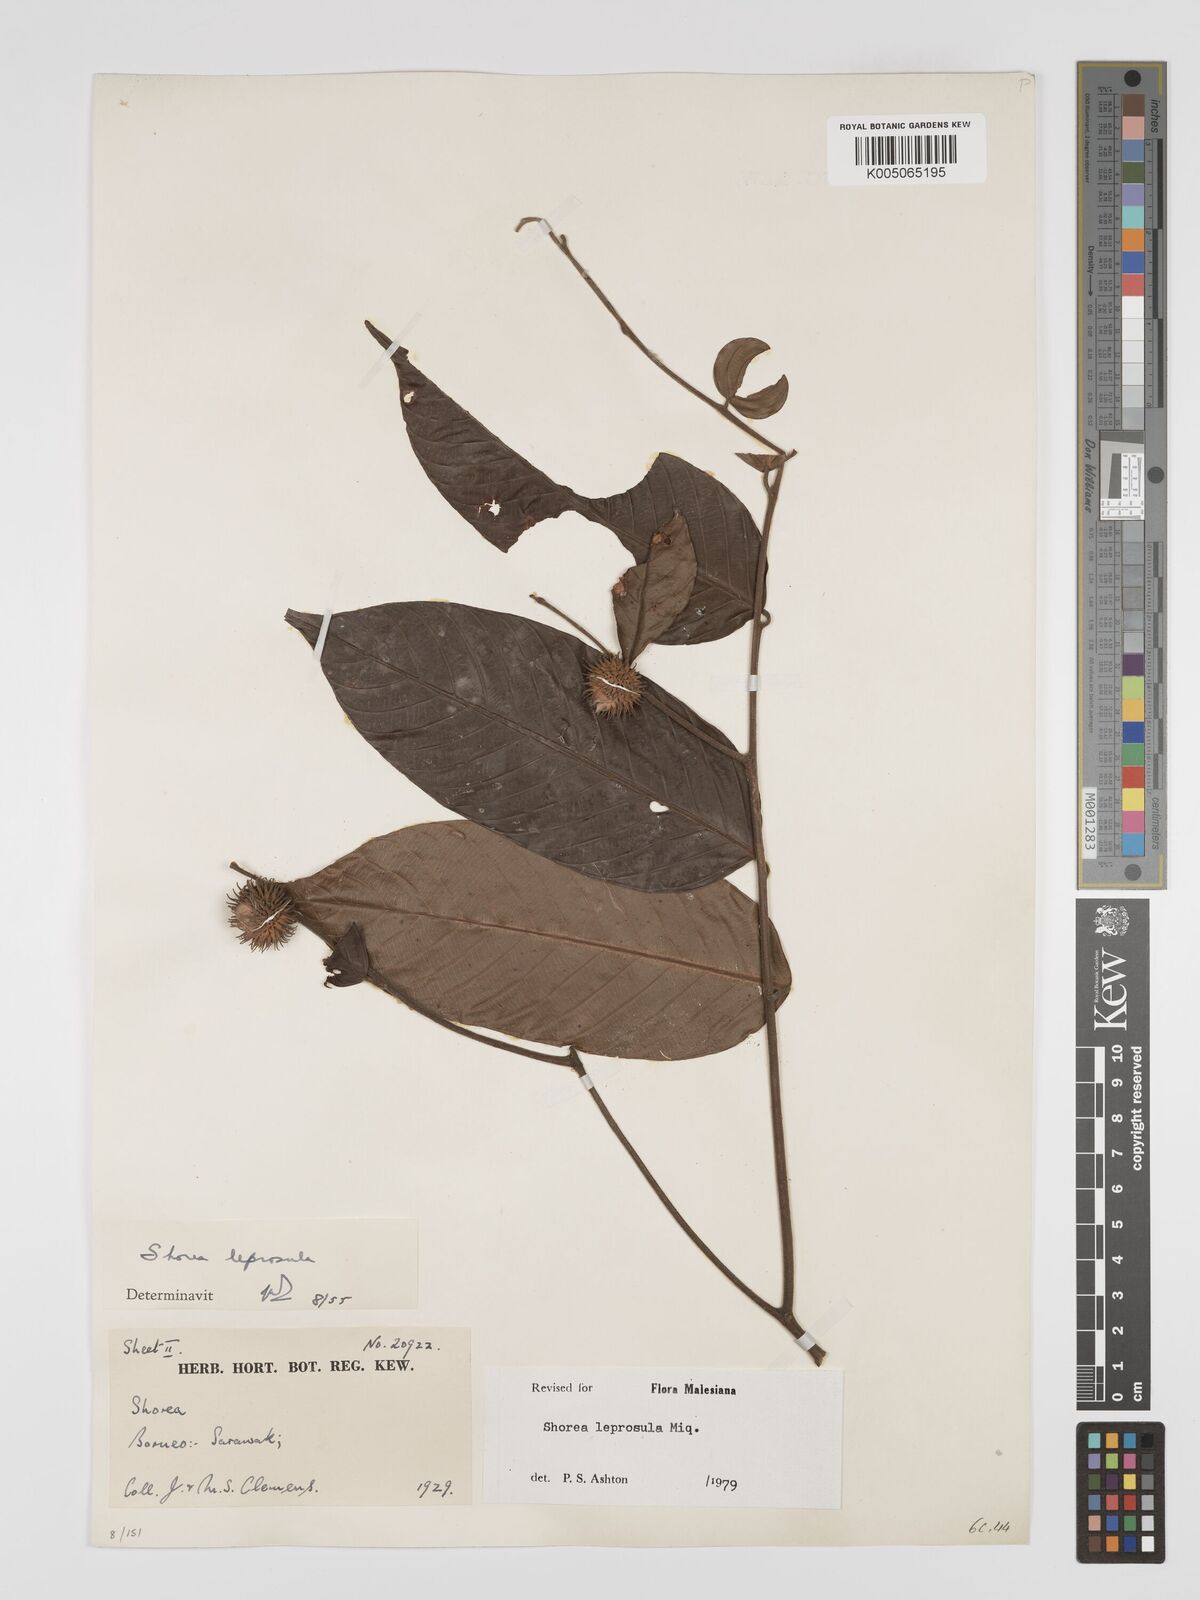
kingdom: Plantae
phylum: Tracheophyta
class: Magnoliopsida
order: Malvales
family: Dipterocarpaceae
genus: Shorea
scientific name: Shorea leprosula
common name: Light red meranti
